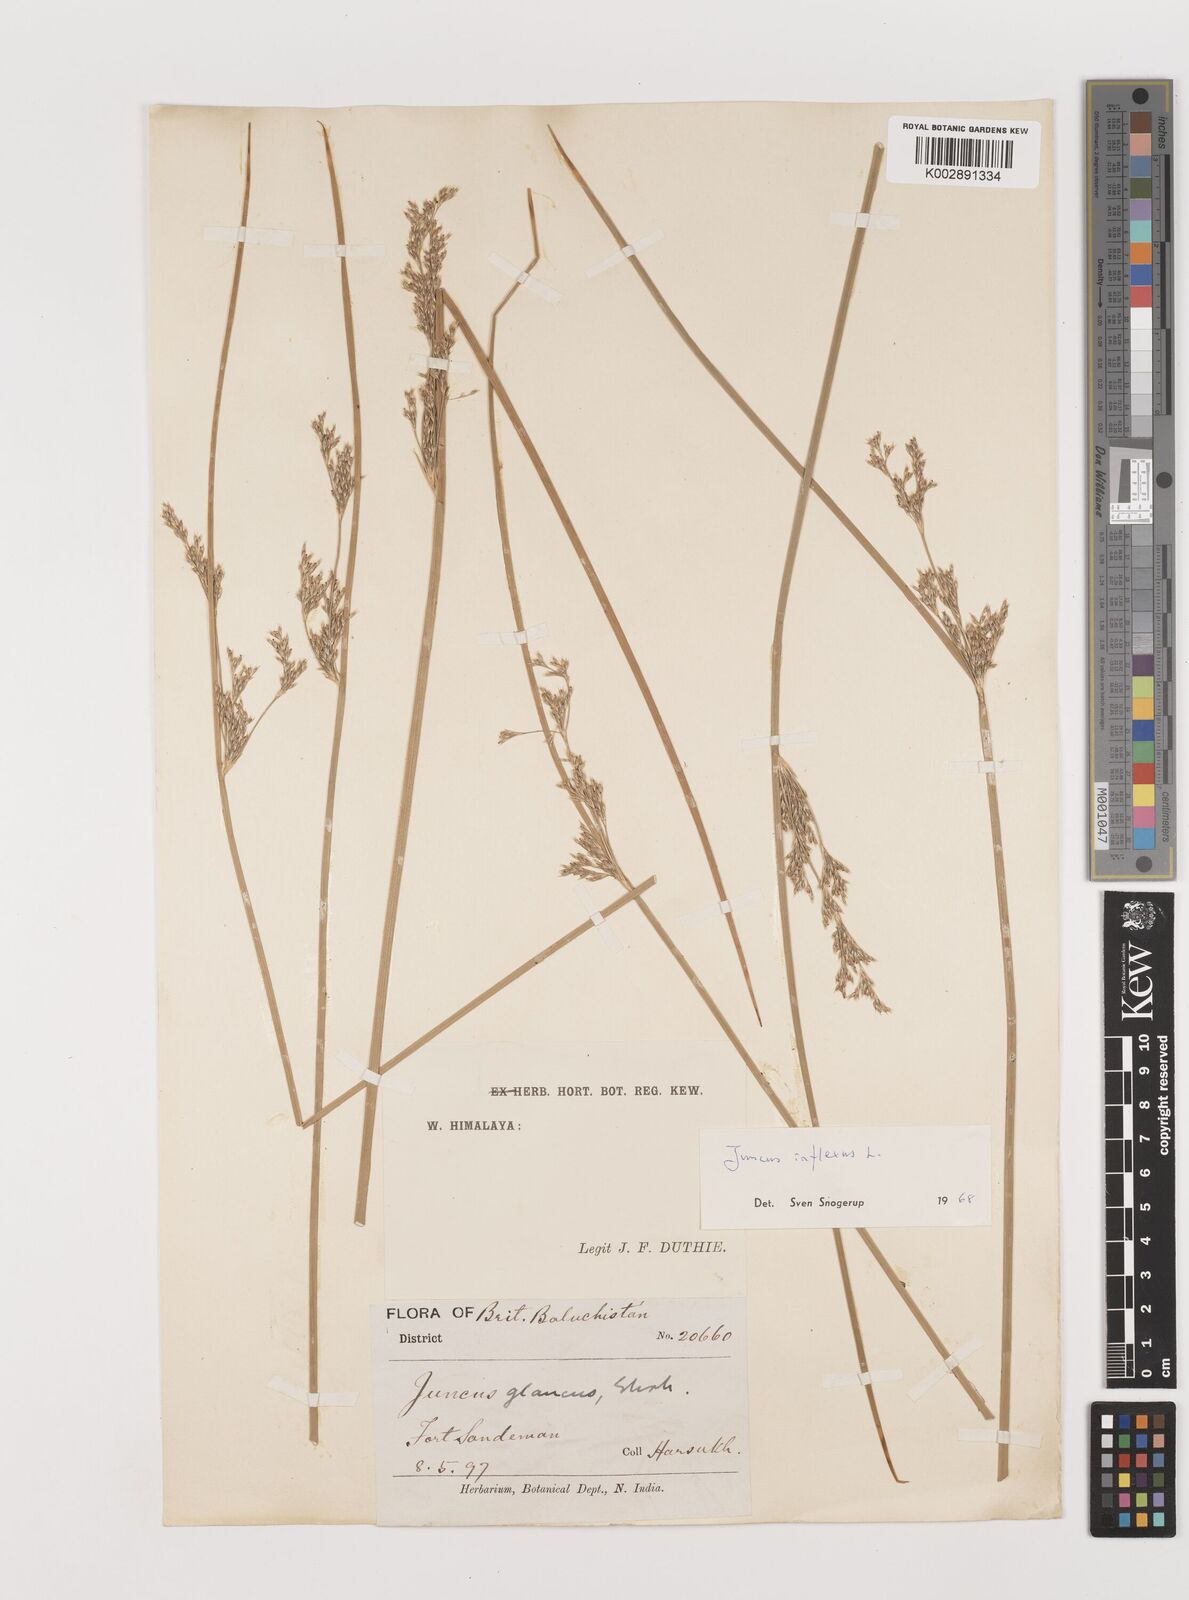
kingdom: Plantae
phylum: Tracheophyta
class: Liliopsida
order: Poales
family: Juncaceae
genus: Juncus
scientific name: Juncus inflexus
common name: Hard rush
